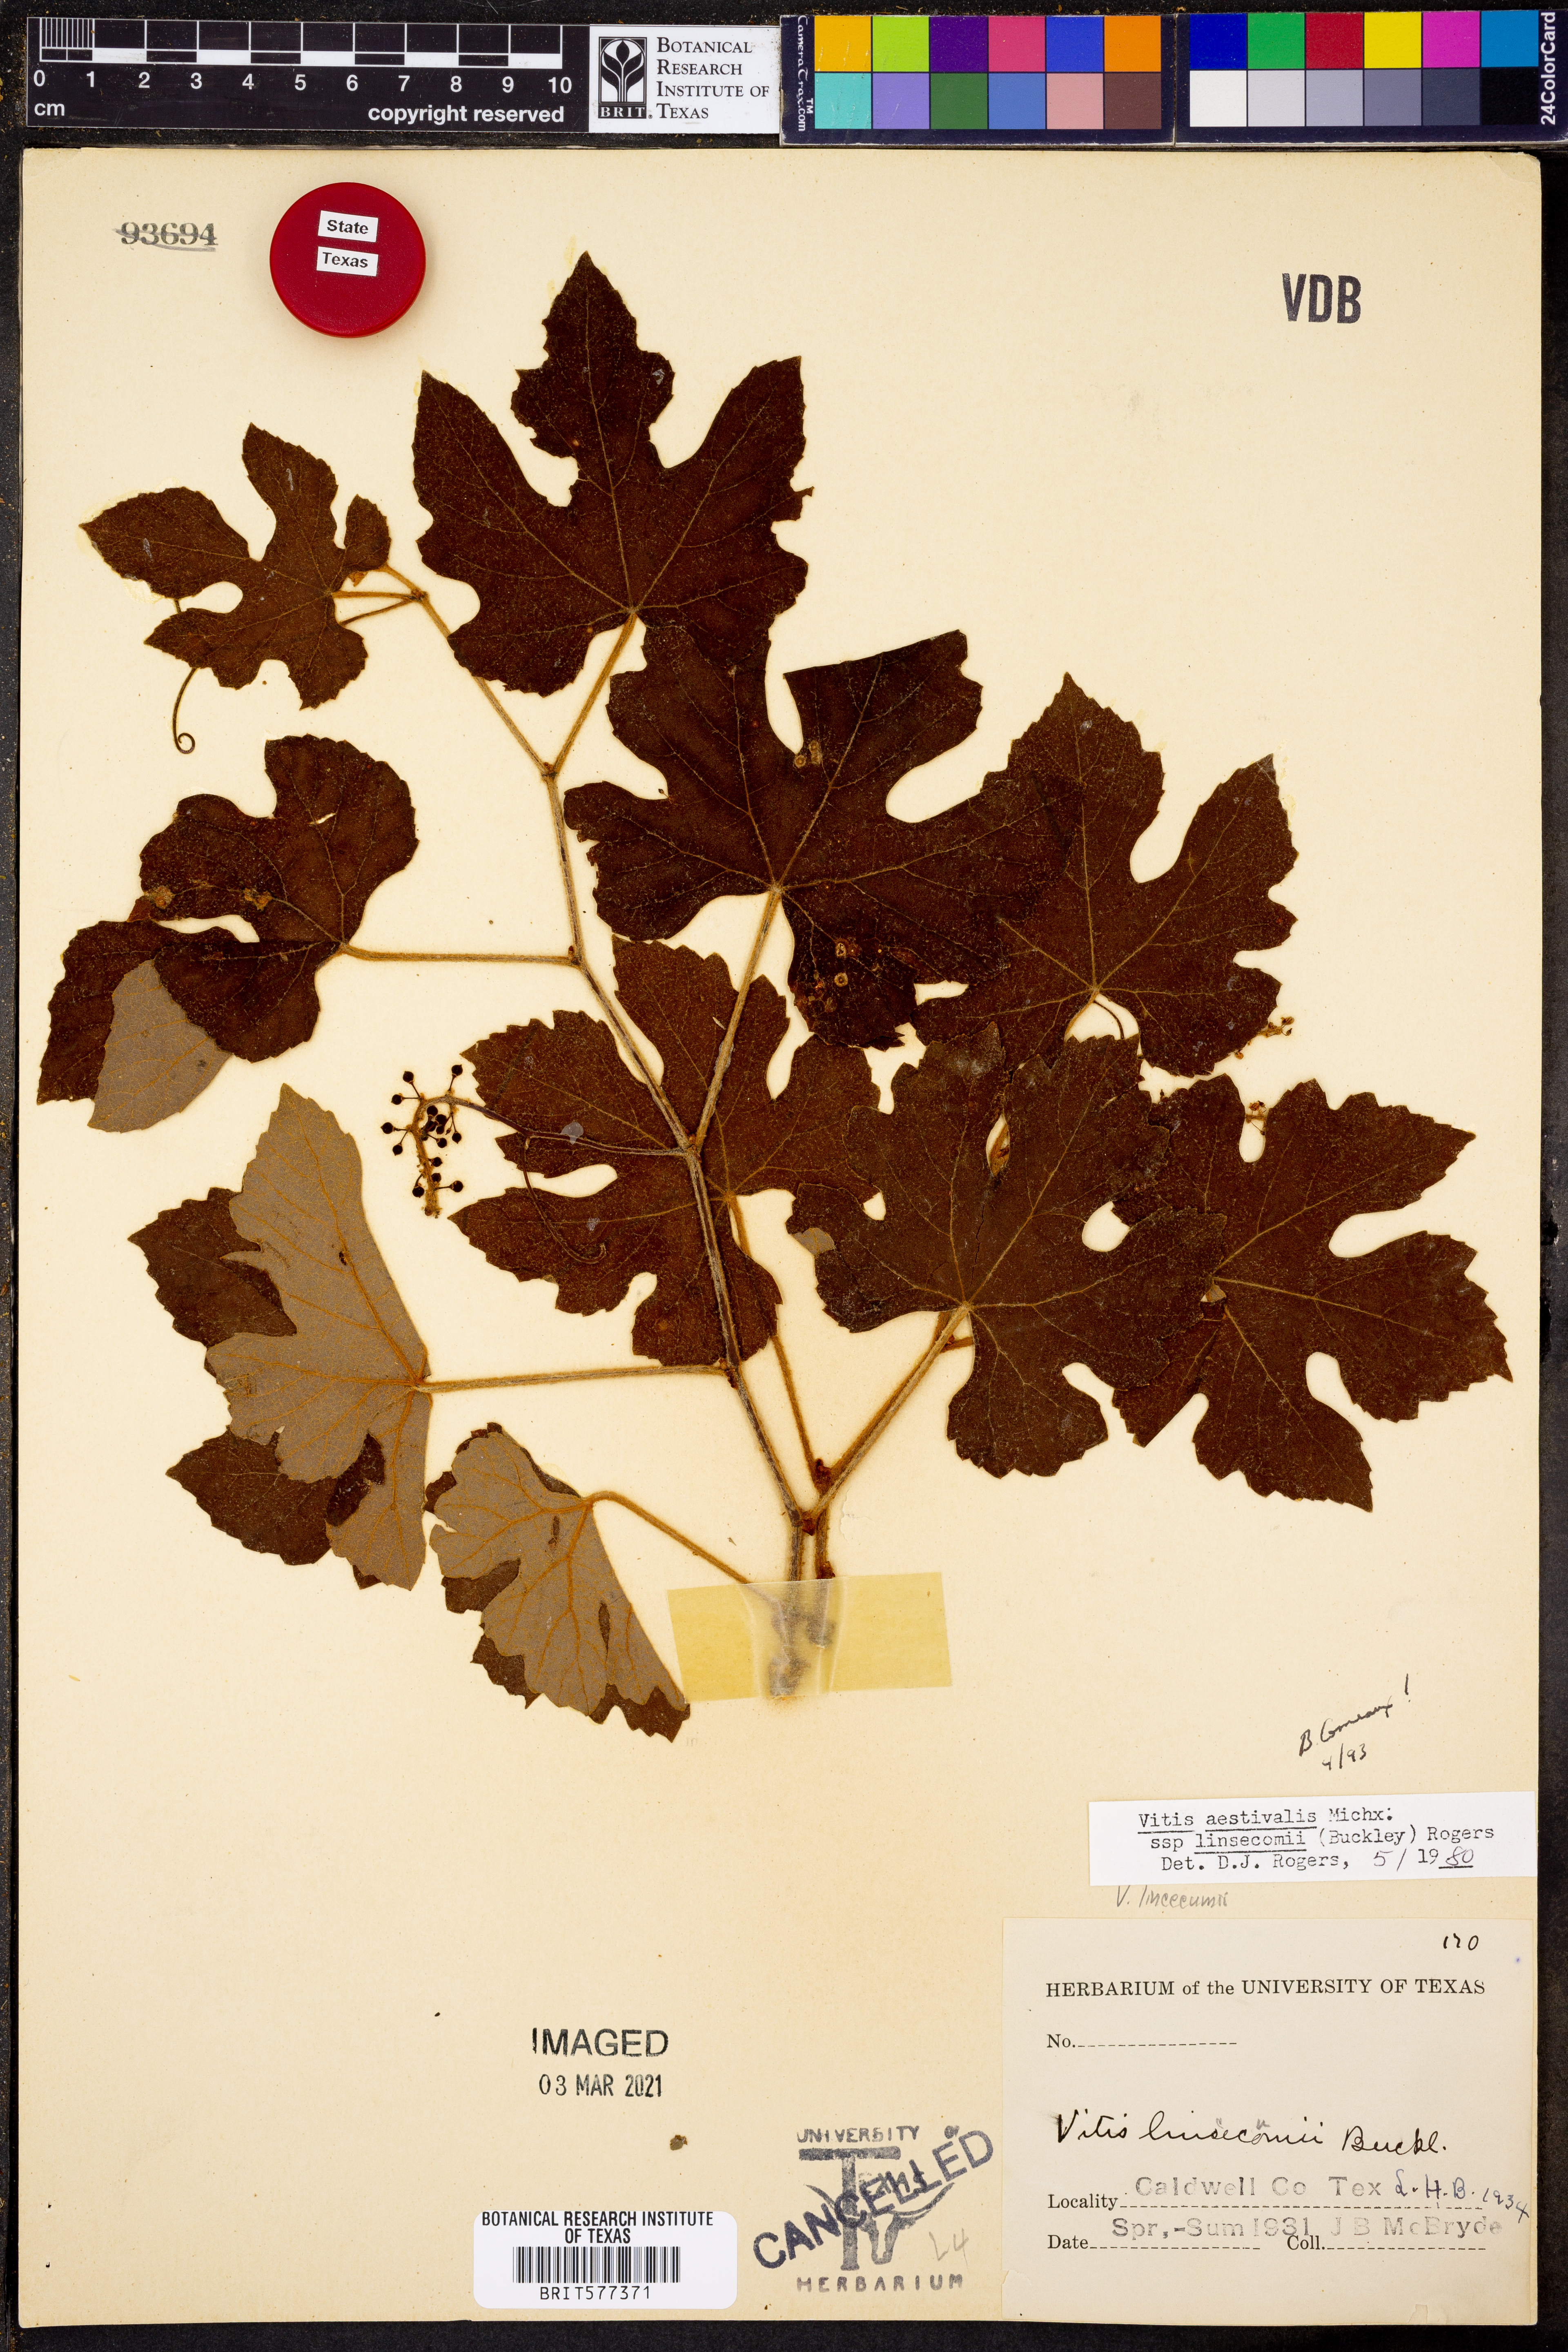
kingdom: Plantae
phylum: Tracheophyta
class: Magnoliopsida
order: Vitales
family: Vitaceae
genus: Vitis
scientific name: Vitis aestivalis
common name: Pigeon grape
